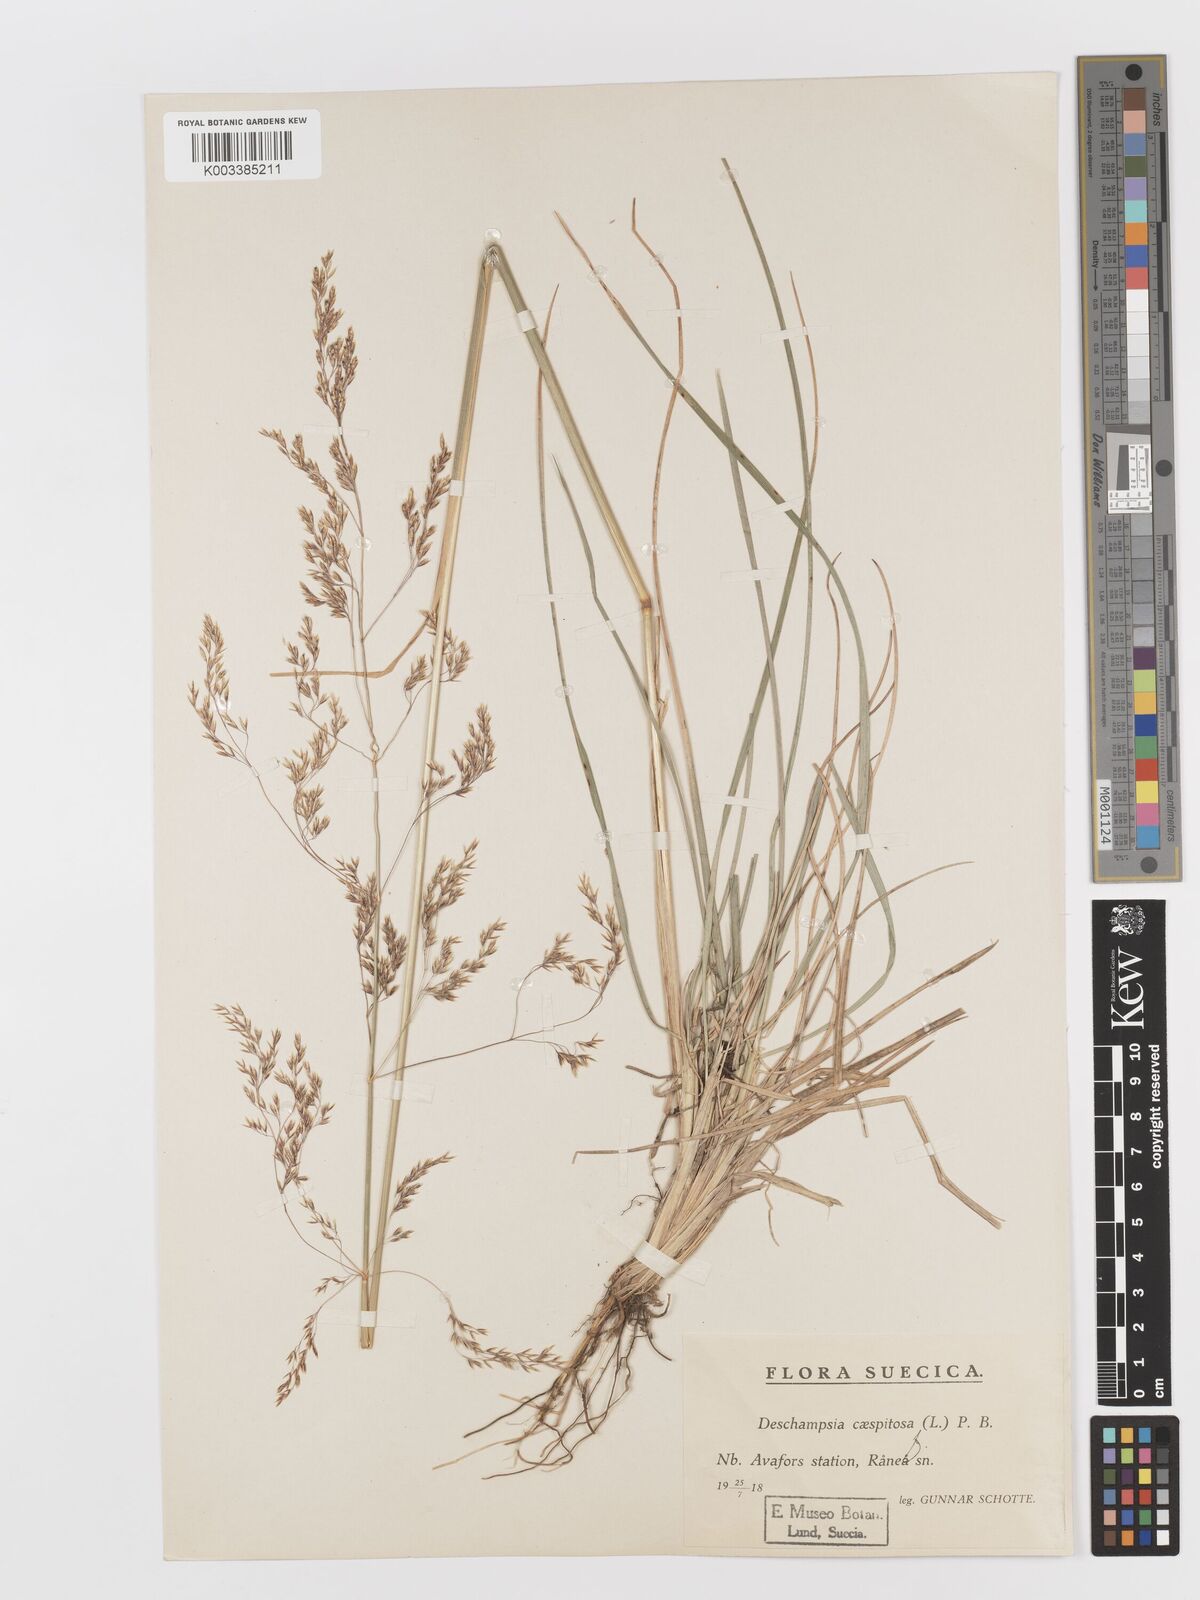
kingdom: Plantae
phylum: Tracheophyta
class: Liliopsida
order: Poales
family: Poaceae
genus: Deschampsia
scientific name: Deschampsia cespitosa
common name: Tufted hair-grass
